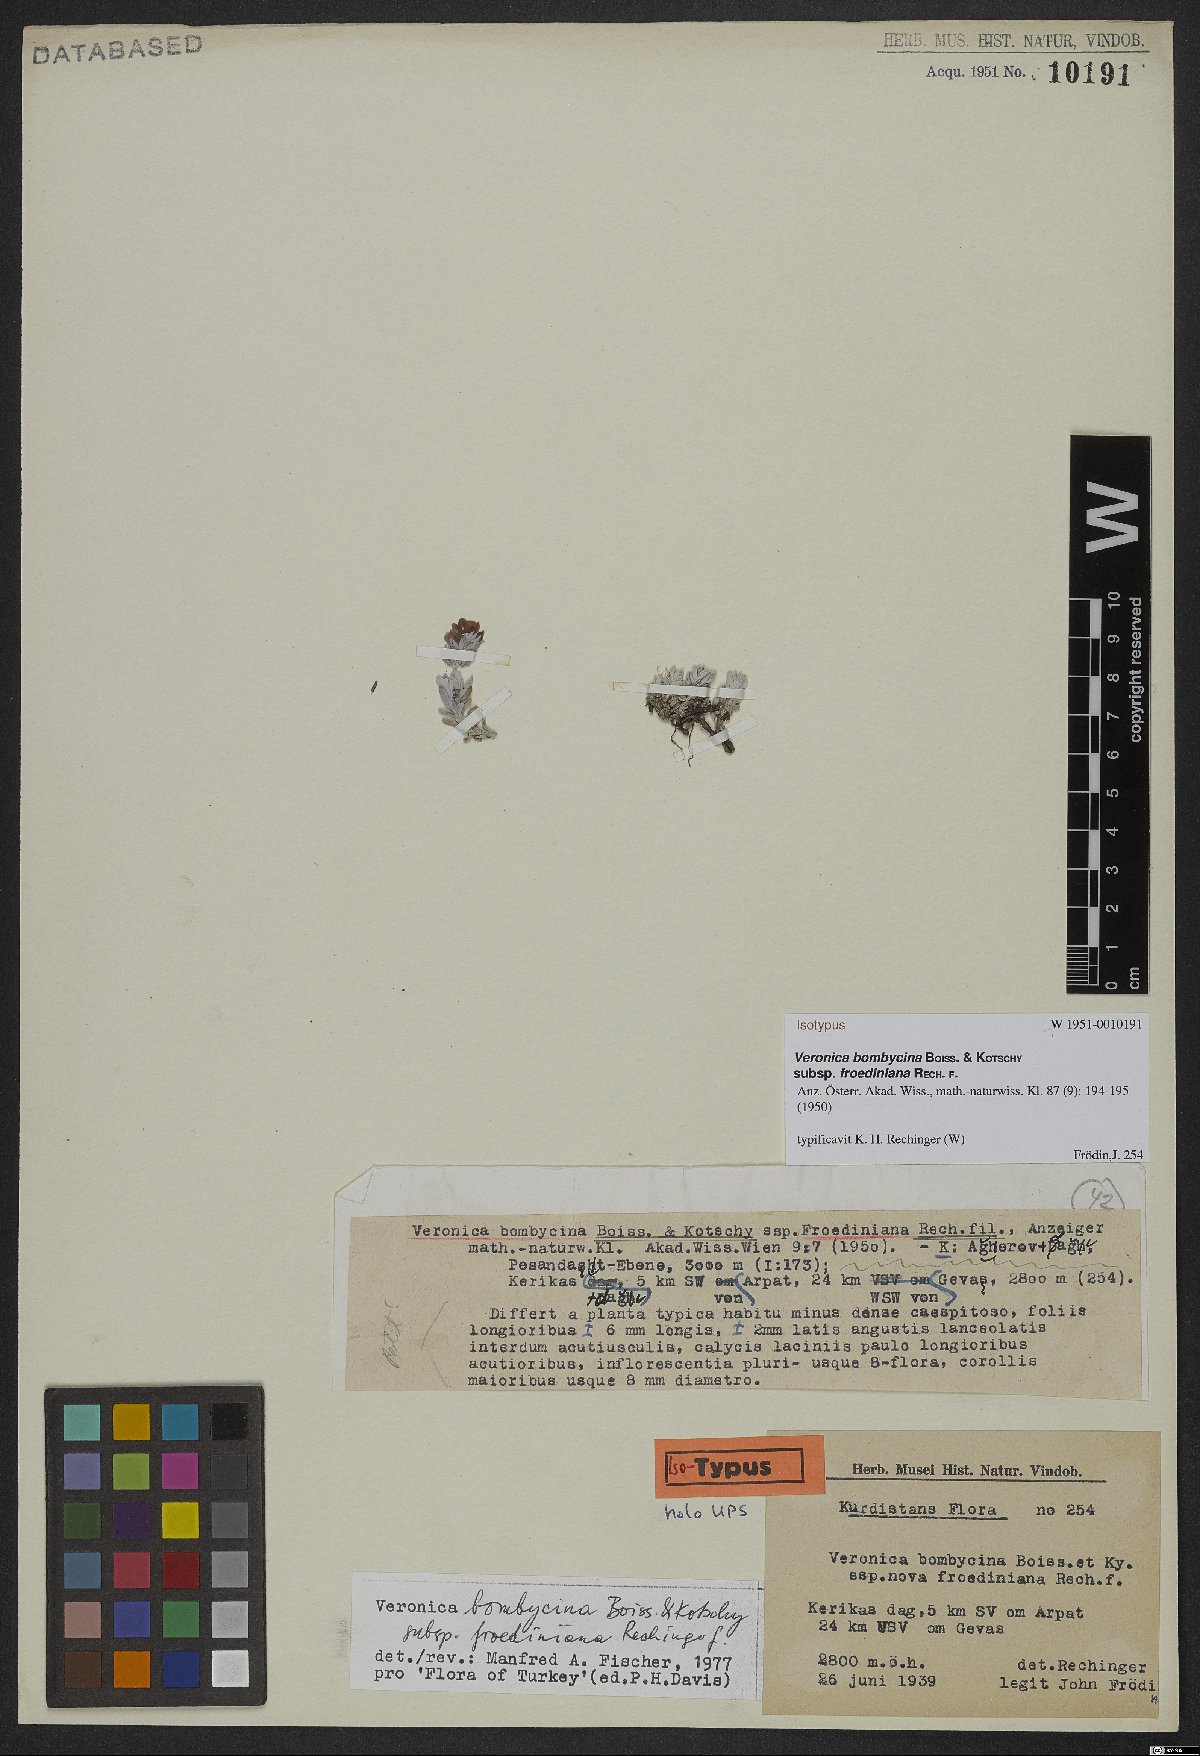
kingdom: Plantae
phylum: Tracheophyta
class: Magnoliopsida
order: Lamiales
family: Plantaginaceae
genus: Veronica
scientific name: Veronica bombycina
